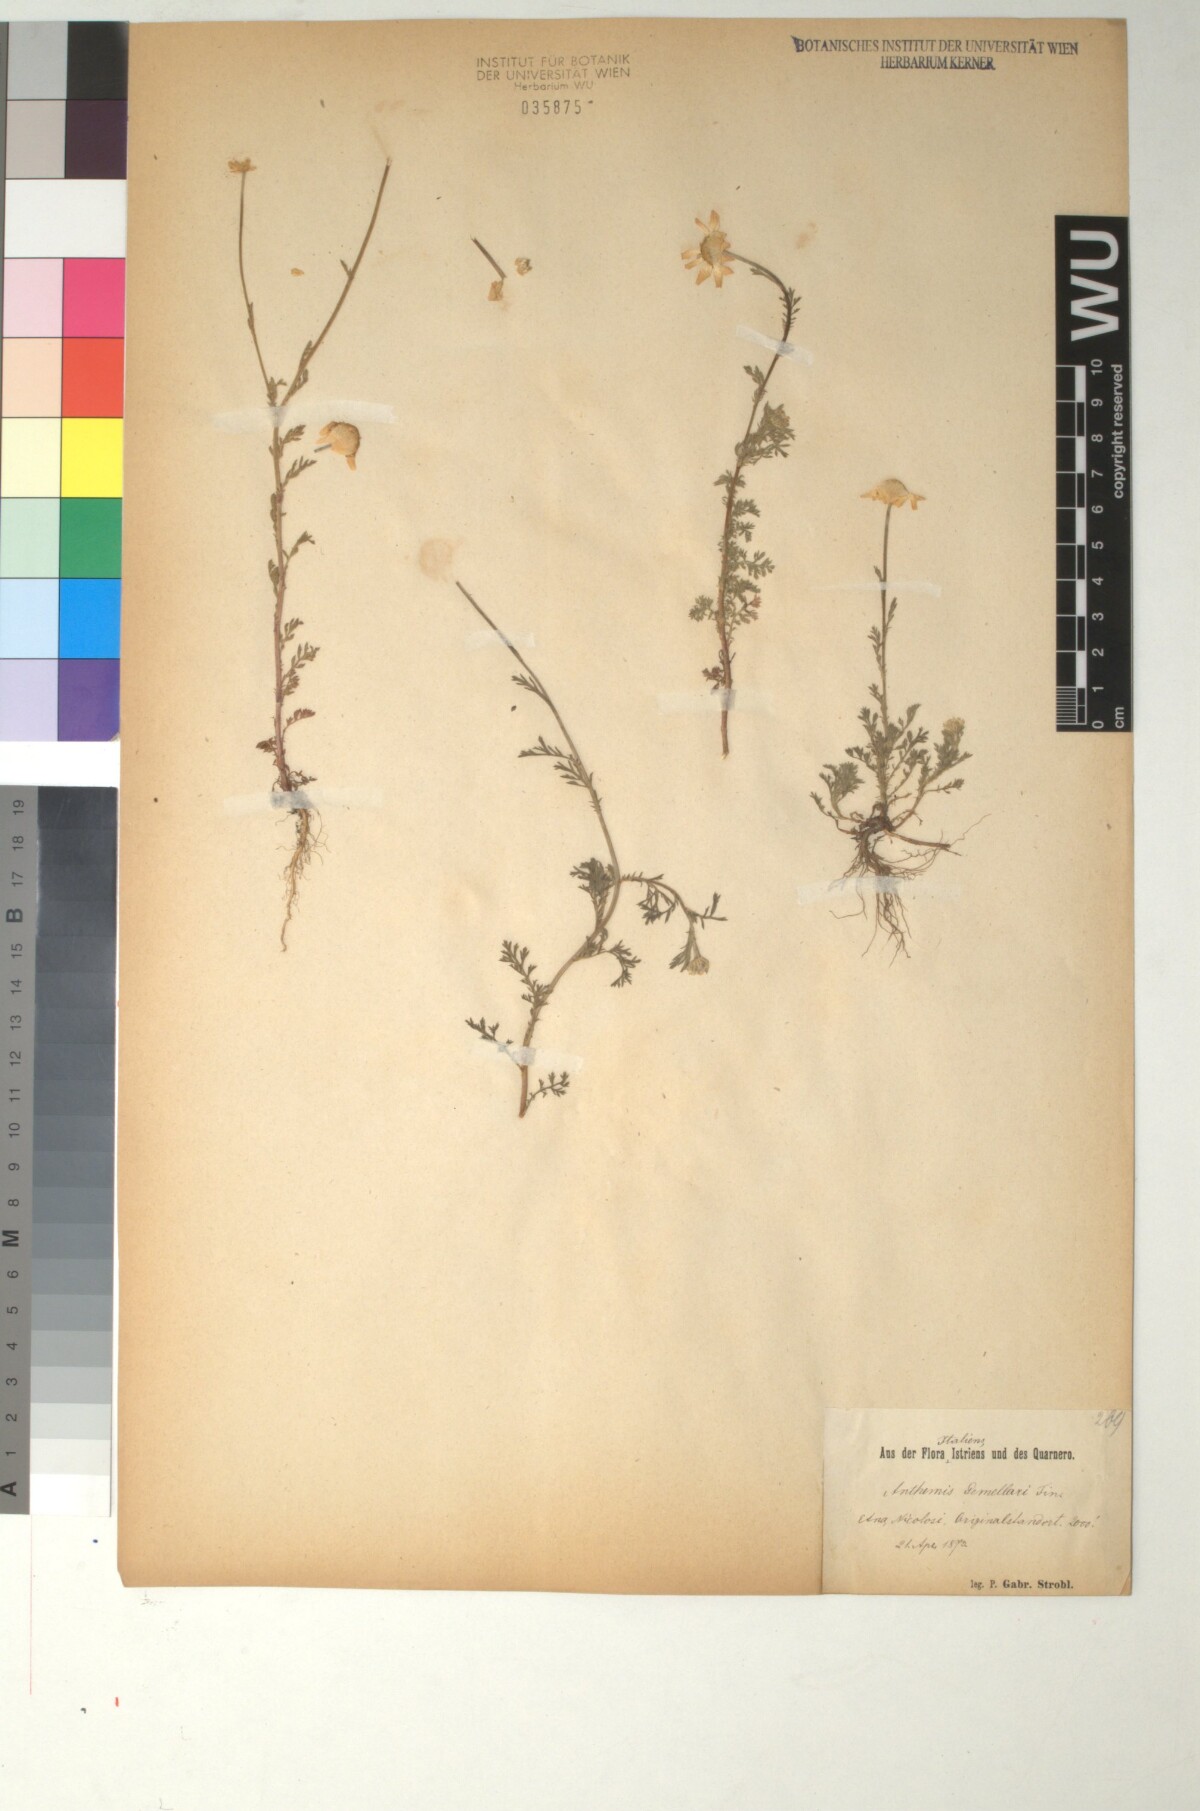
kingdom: Plantae
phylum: Tracheophyta
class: Magnoliopsida
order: Asterales
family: Asteraceae
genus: Anthemis
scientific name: Anthemis arvensis
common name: Corn chamomile
